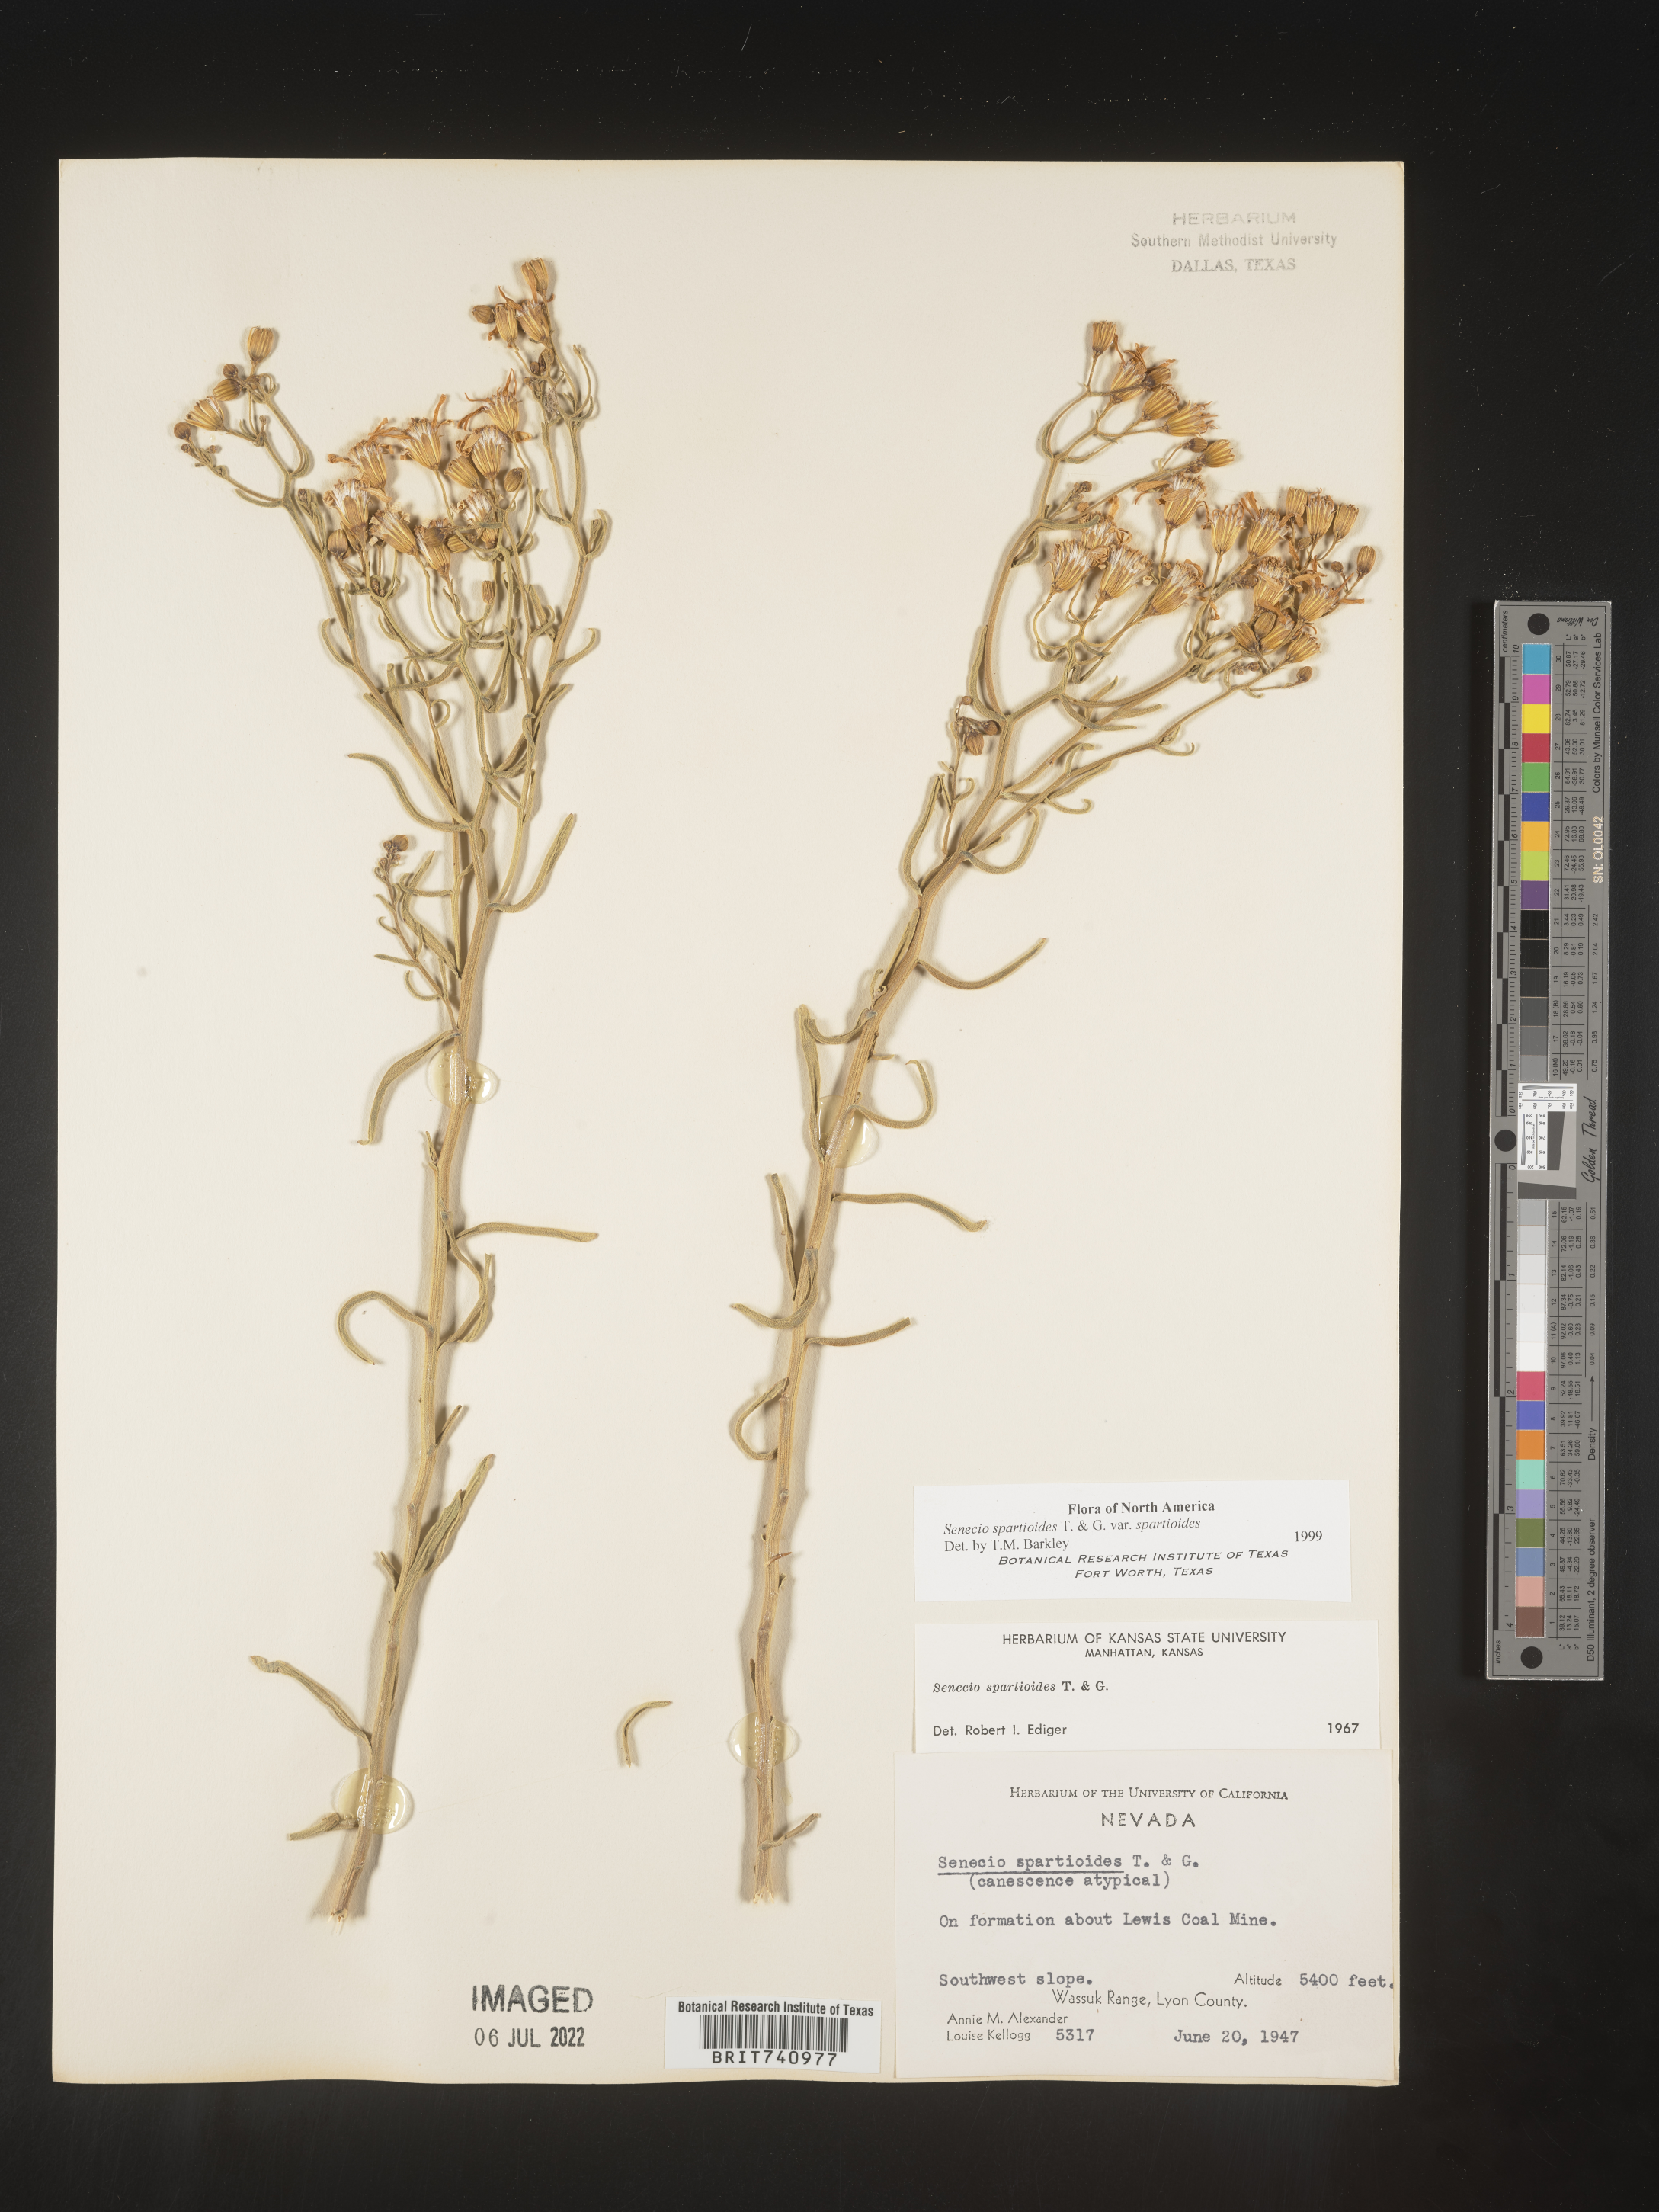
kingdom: Plantae
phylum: Tracheophyta
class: Magnoliopsida
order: Asterales
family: Asteraceae
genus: Senecio
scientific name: Senecio spartioides
